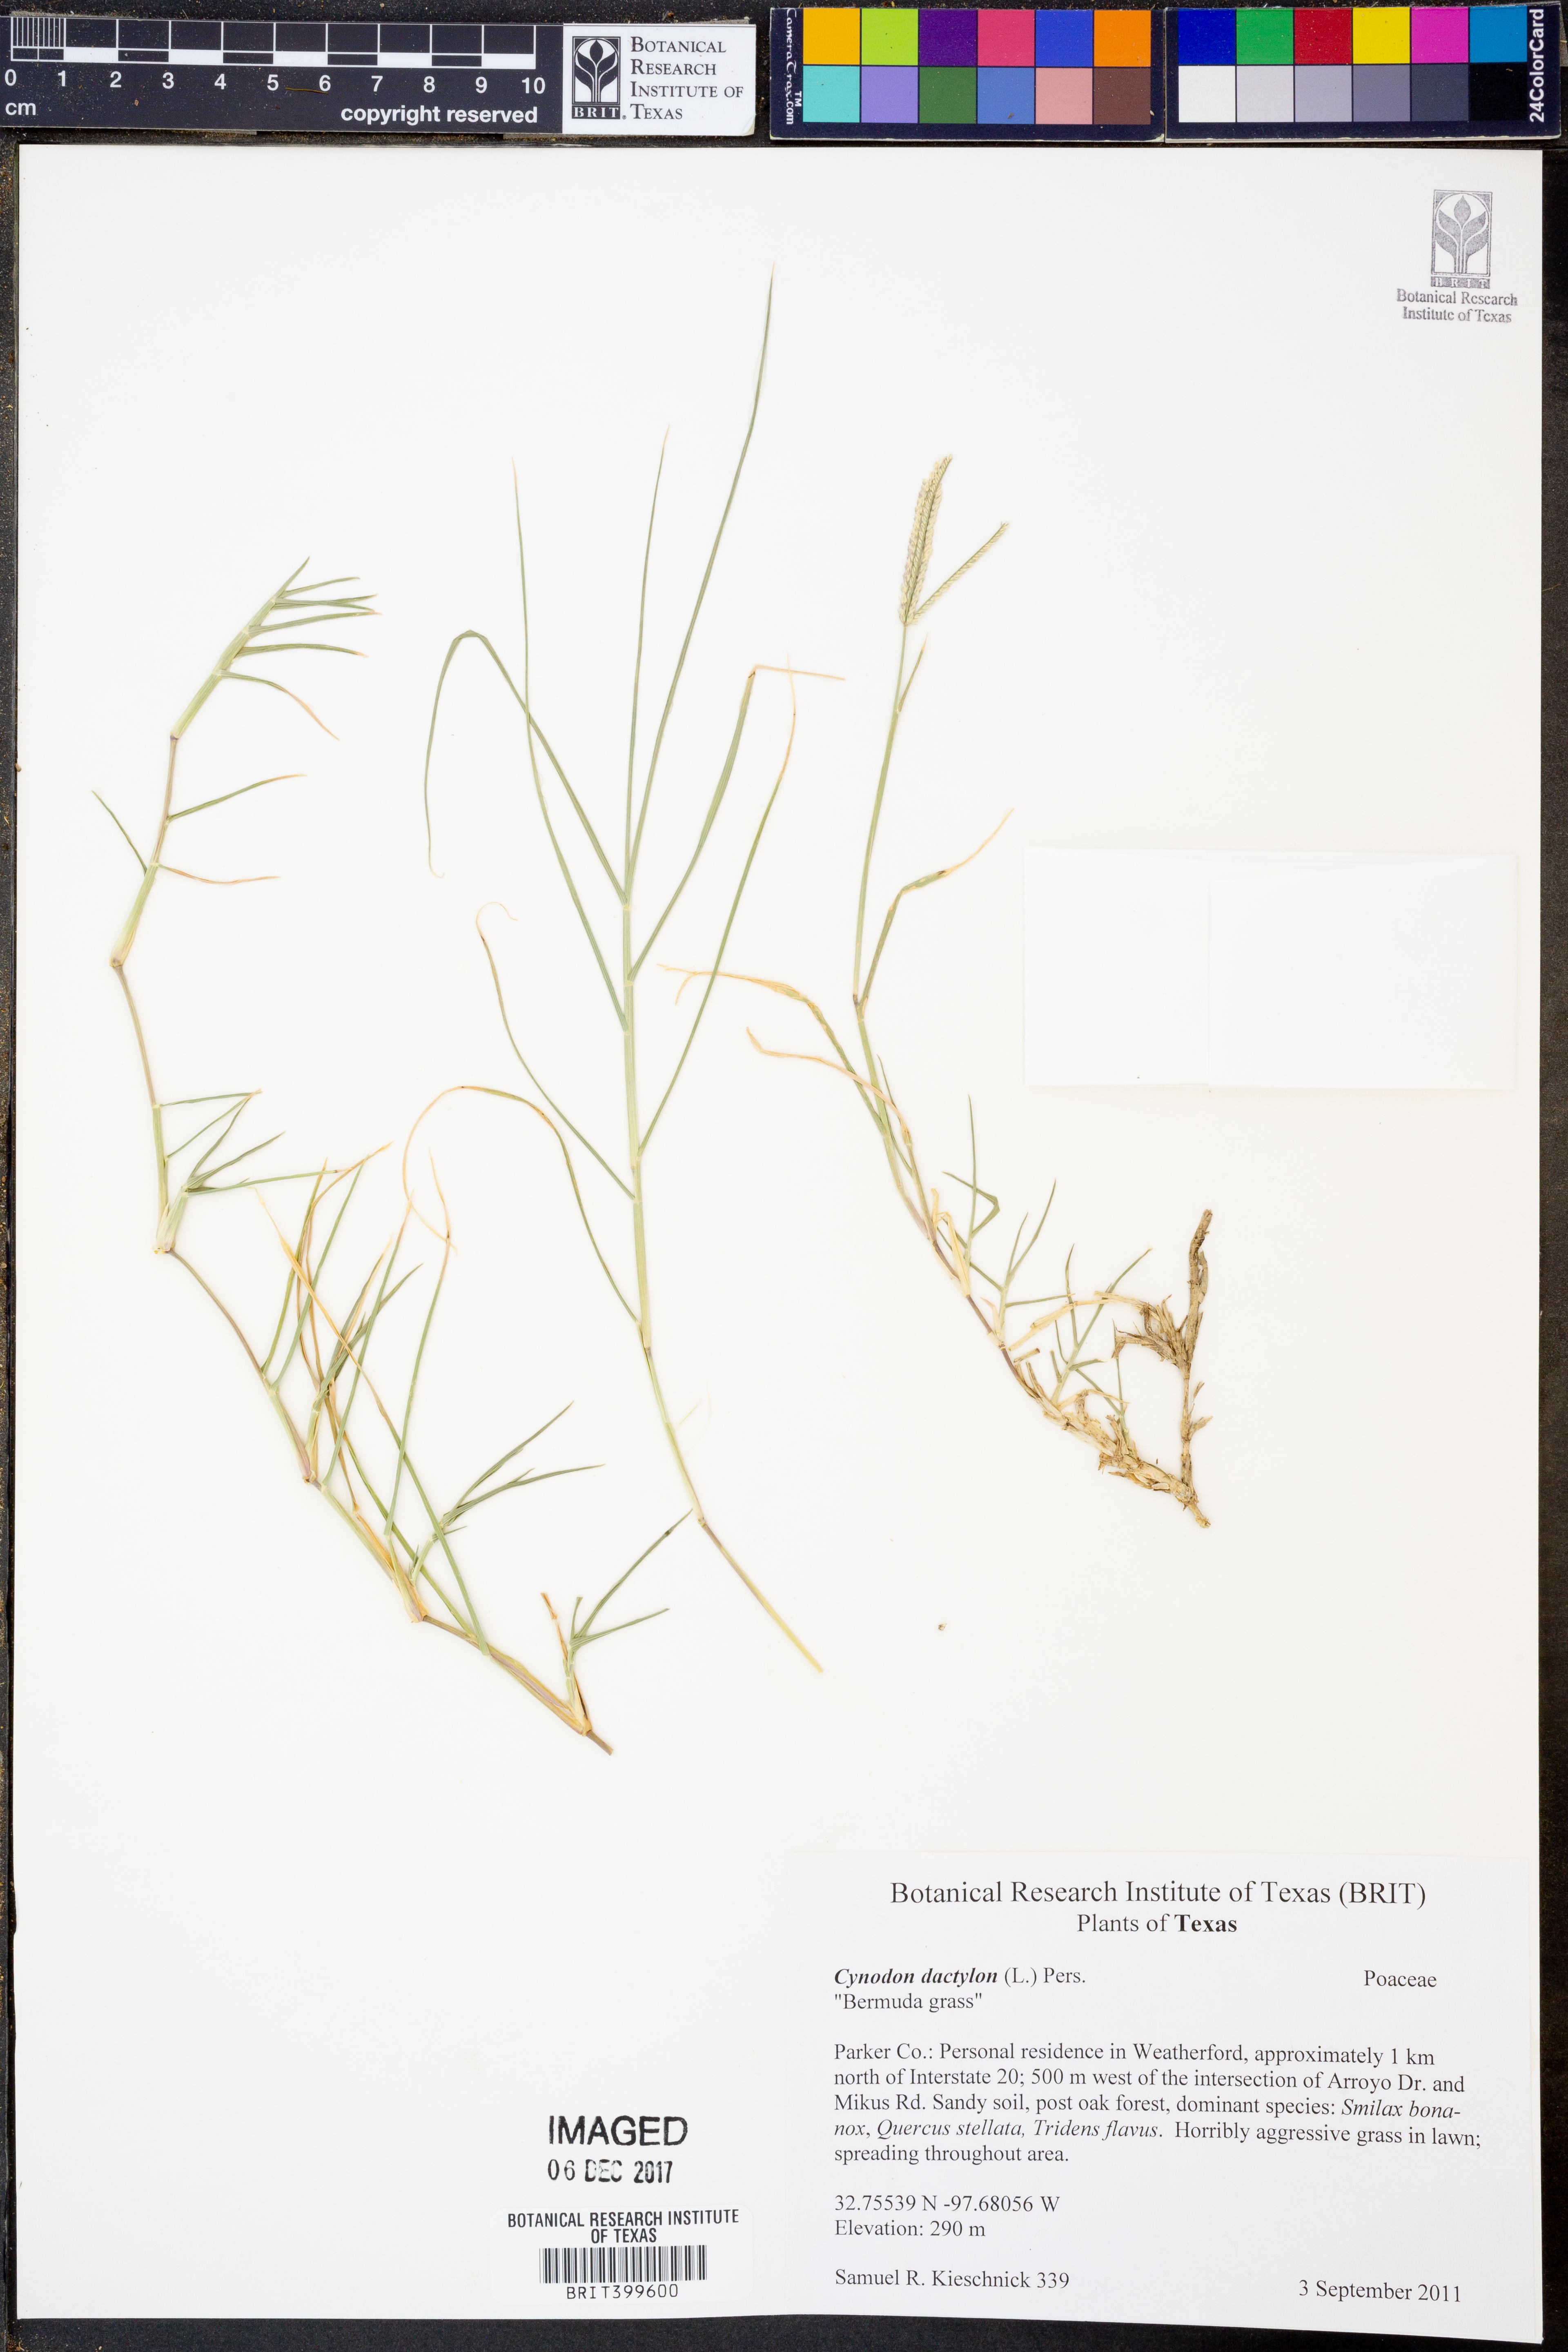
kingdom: Plantae
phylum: Tracheophyta
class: Liliopsida
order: Poales
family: Poaceae
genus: Cynodon
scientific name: Cynodon dactylon
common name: Bermuda grass
